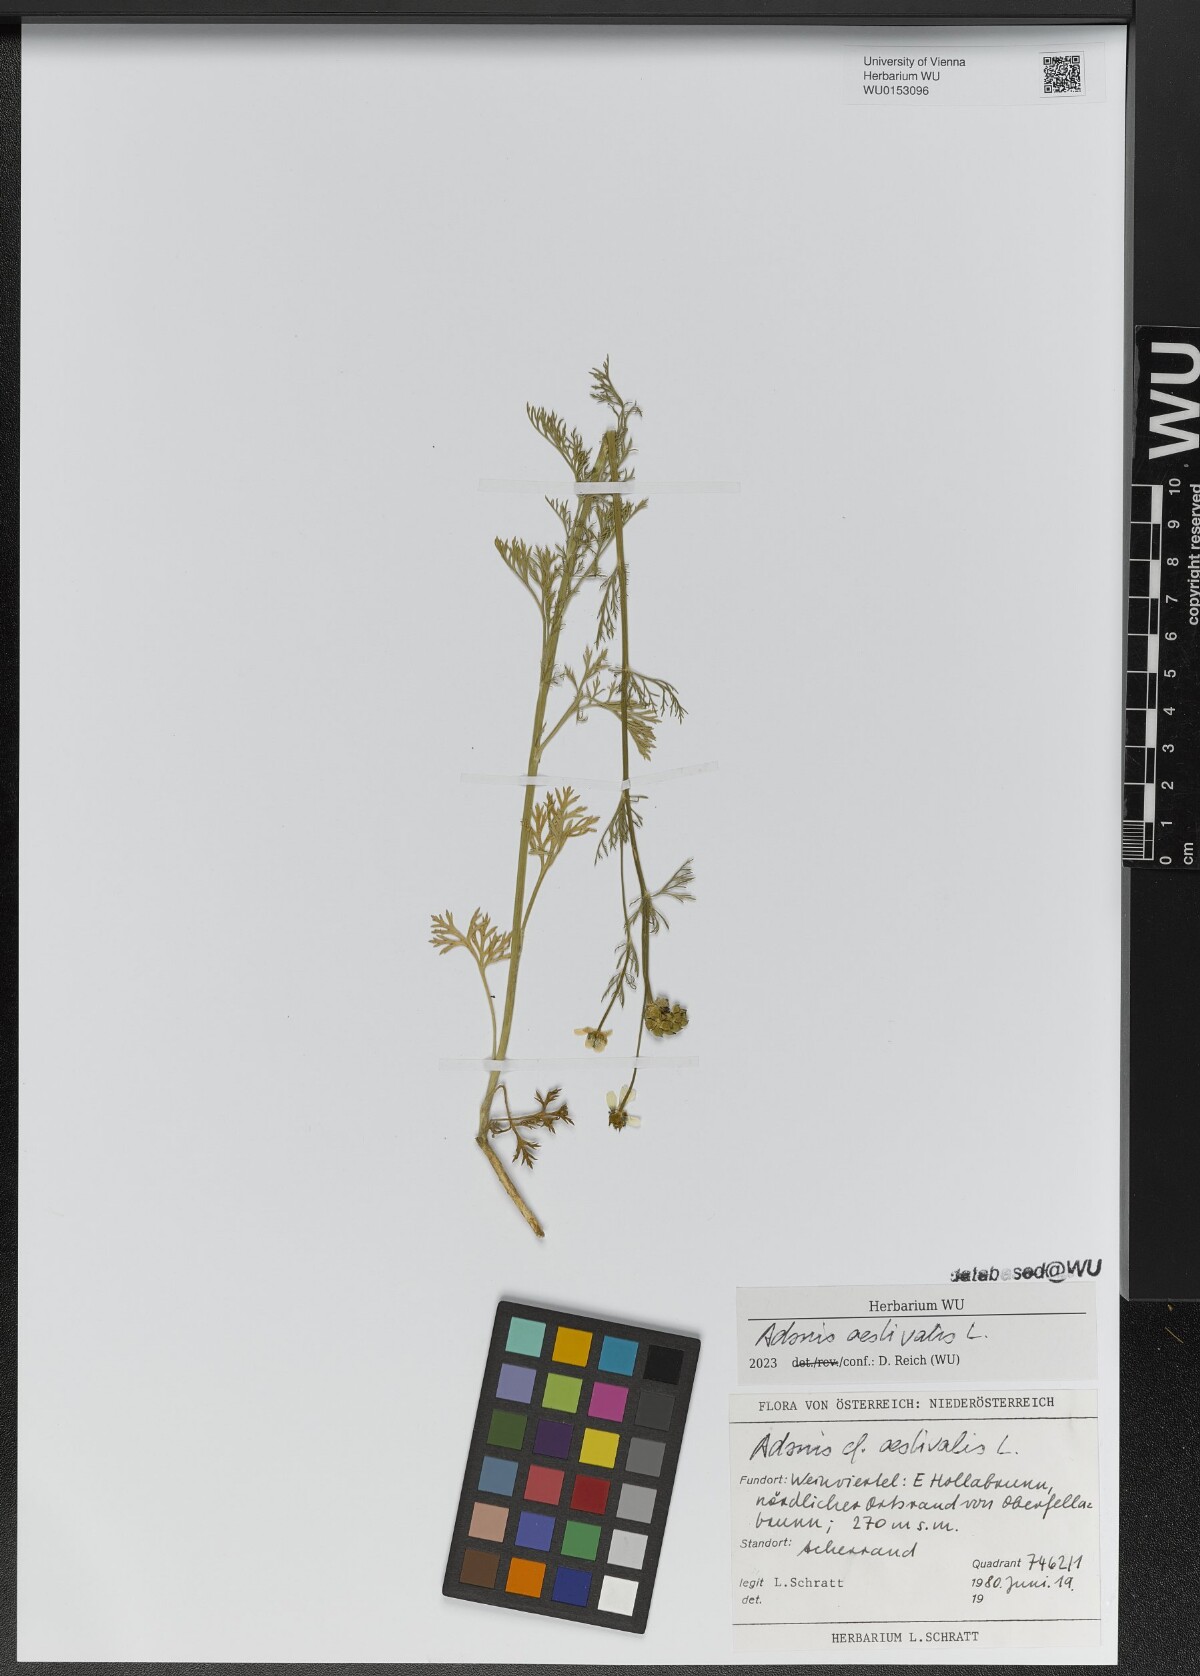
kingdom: Plantae
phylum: Tracheophyta
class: Magnoliopsida
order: Ranunculales
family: Ranunculaceae
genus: Adonis
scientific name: Adonis aestivalis
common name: Summer pheasant's-eye
